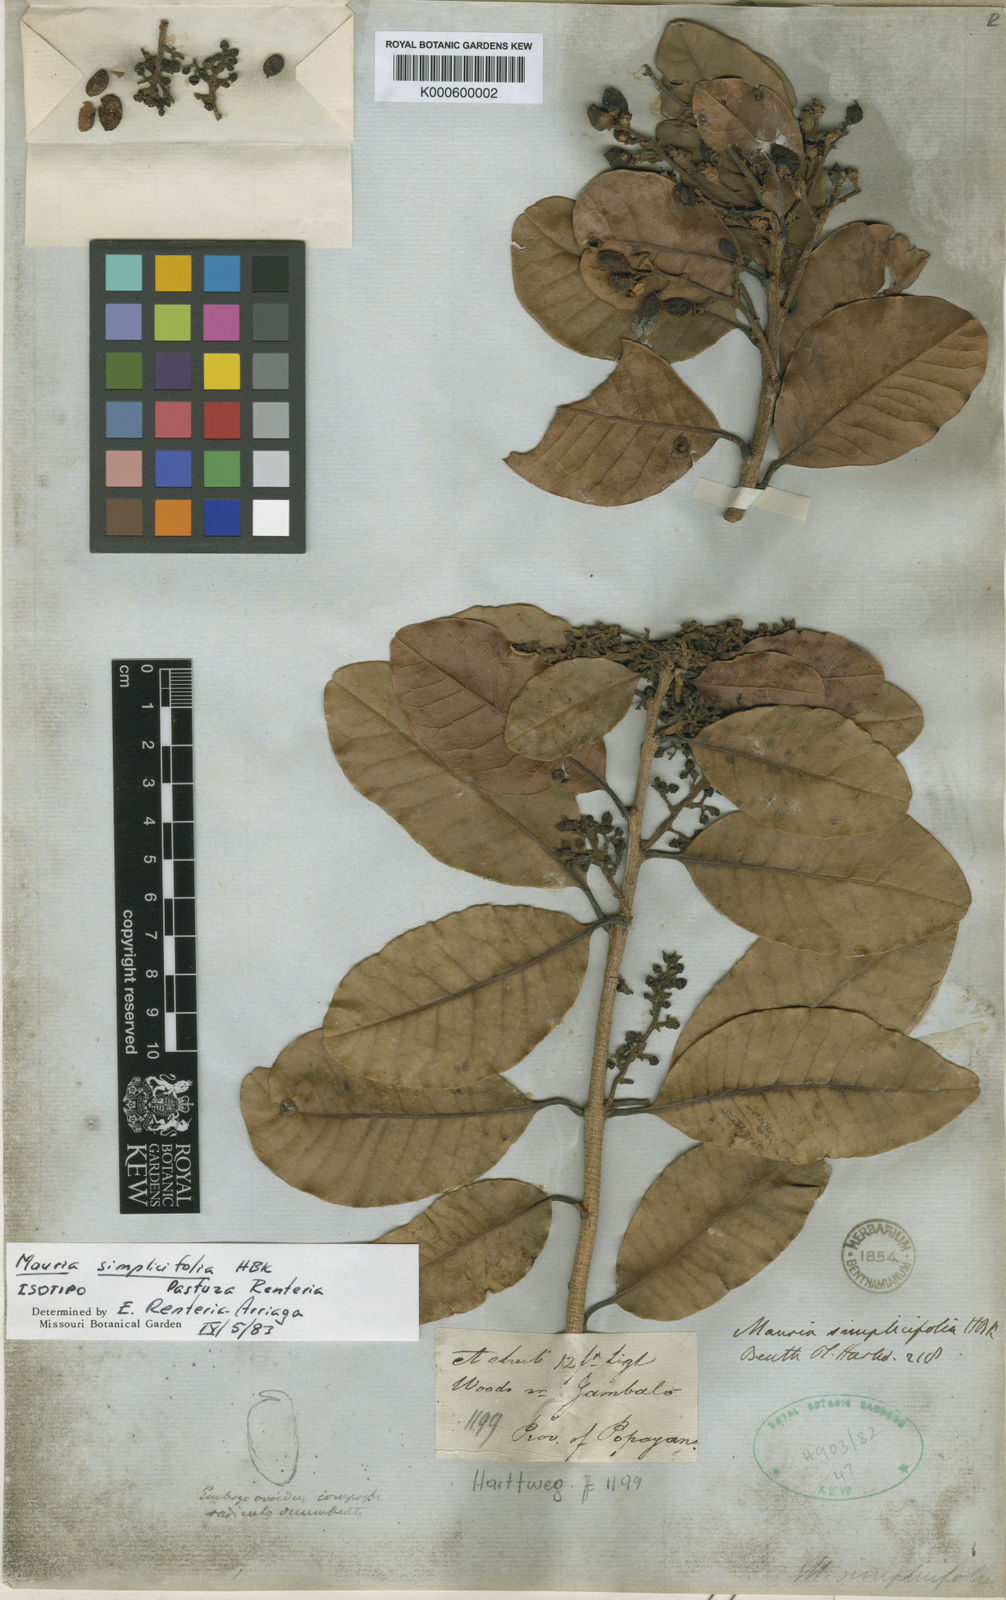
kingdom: Plantae
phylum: Tracheophyta
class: Magnoliopsida
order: Sapindales
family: Anacardiaceae
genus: Mauria
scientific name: Mauria simplicifolia
